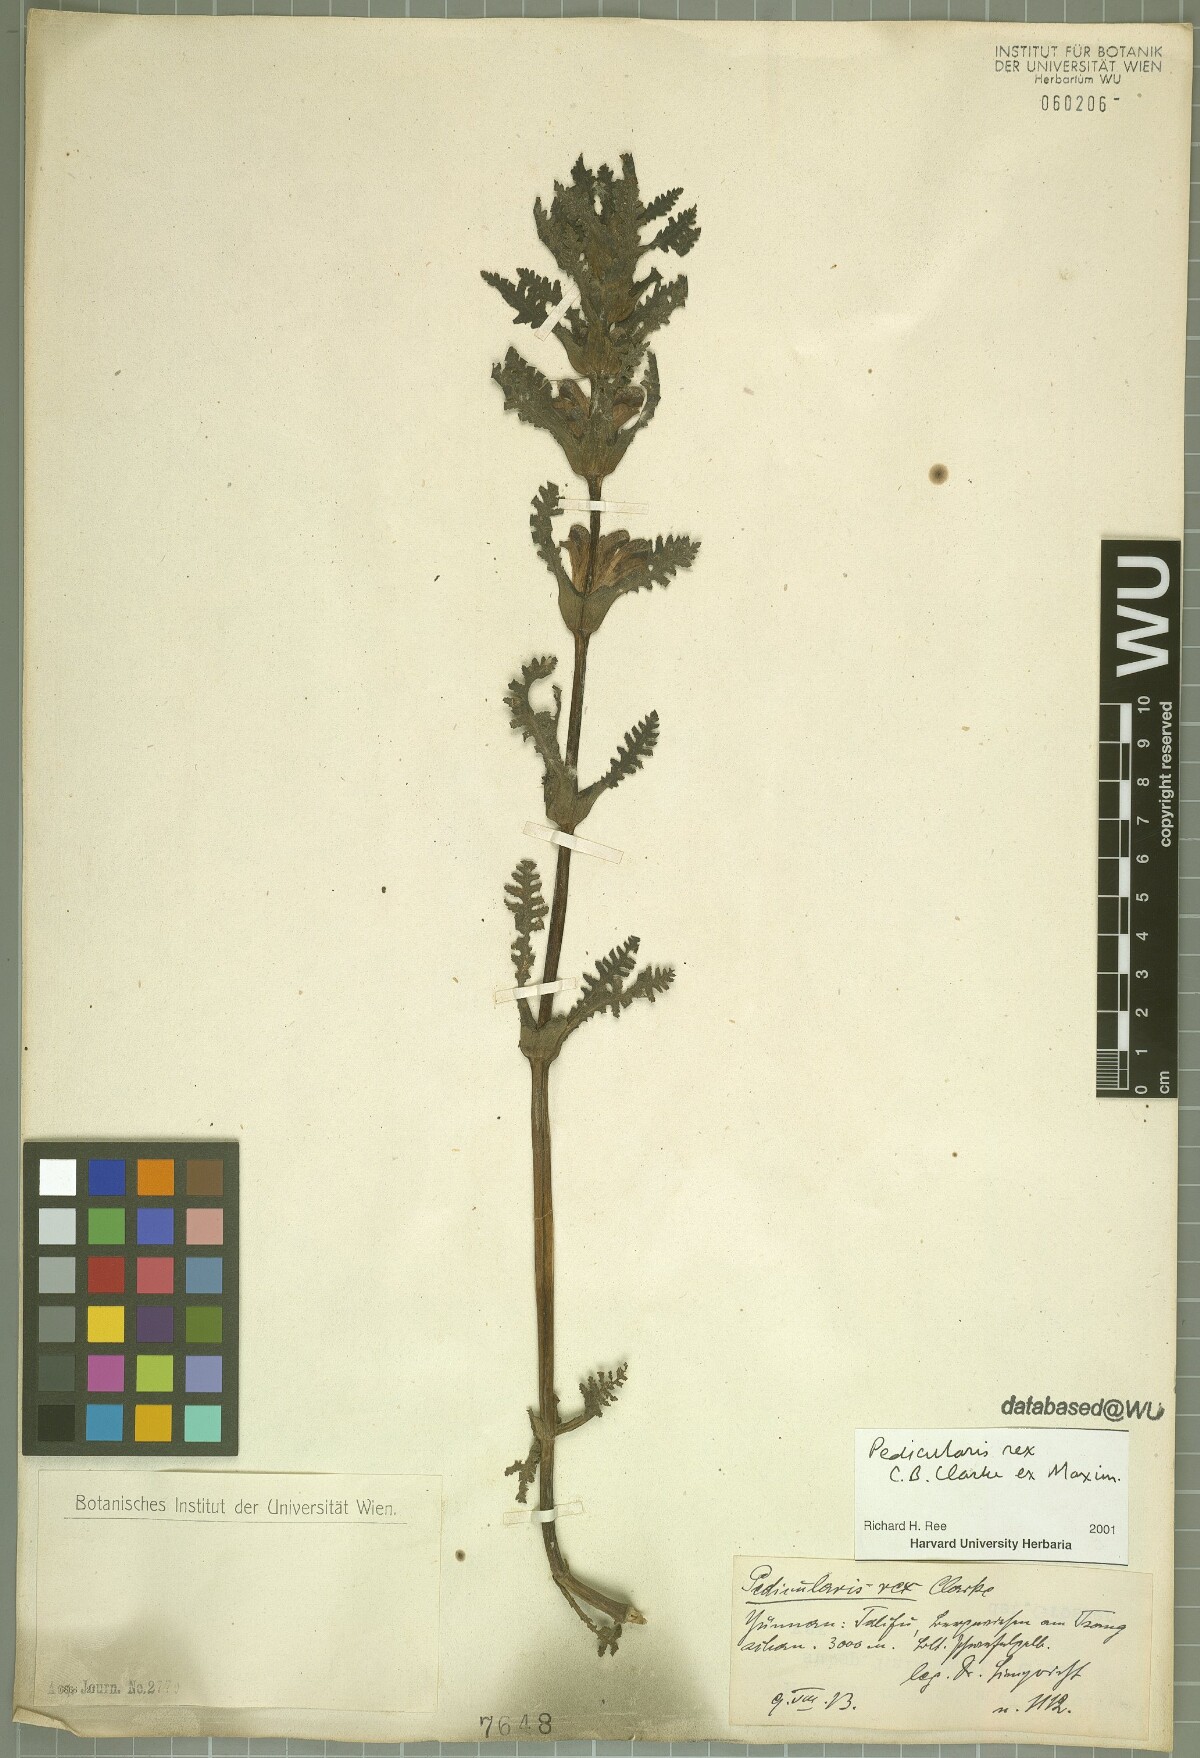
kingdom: Plantae
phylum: Tracheophyta
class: Magnoliopsida
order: Lamiales
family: Orobanchaceae
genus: Pedicularis
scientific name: Pedicularis rex
